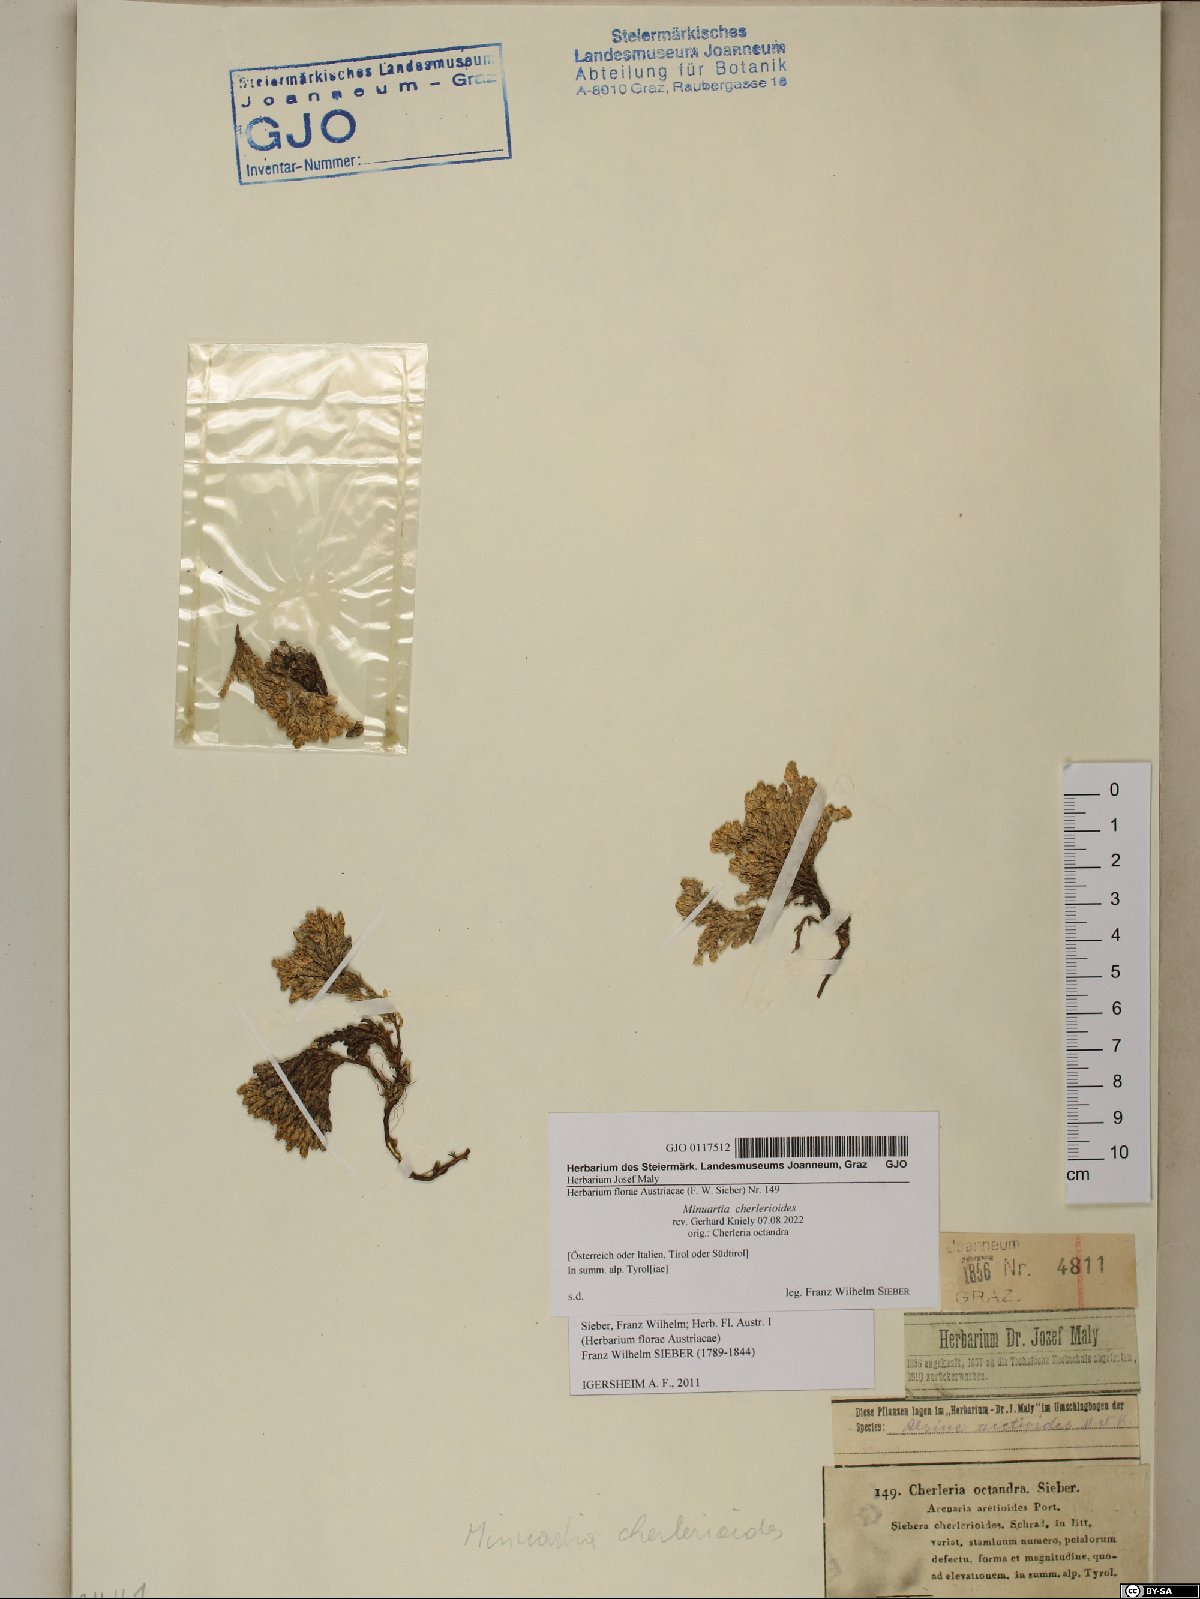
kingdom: Plantae
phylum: Tracheophyta
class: Magnoliopsida
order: Caryophyllales
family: Caryophyllaceae
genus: Facchinia
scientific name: Facchinia cherlerioides
